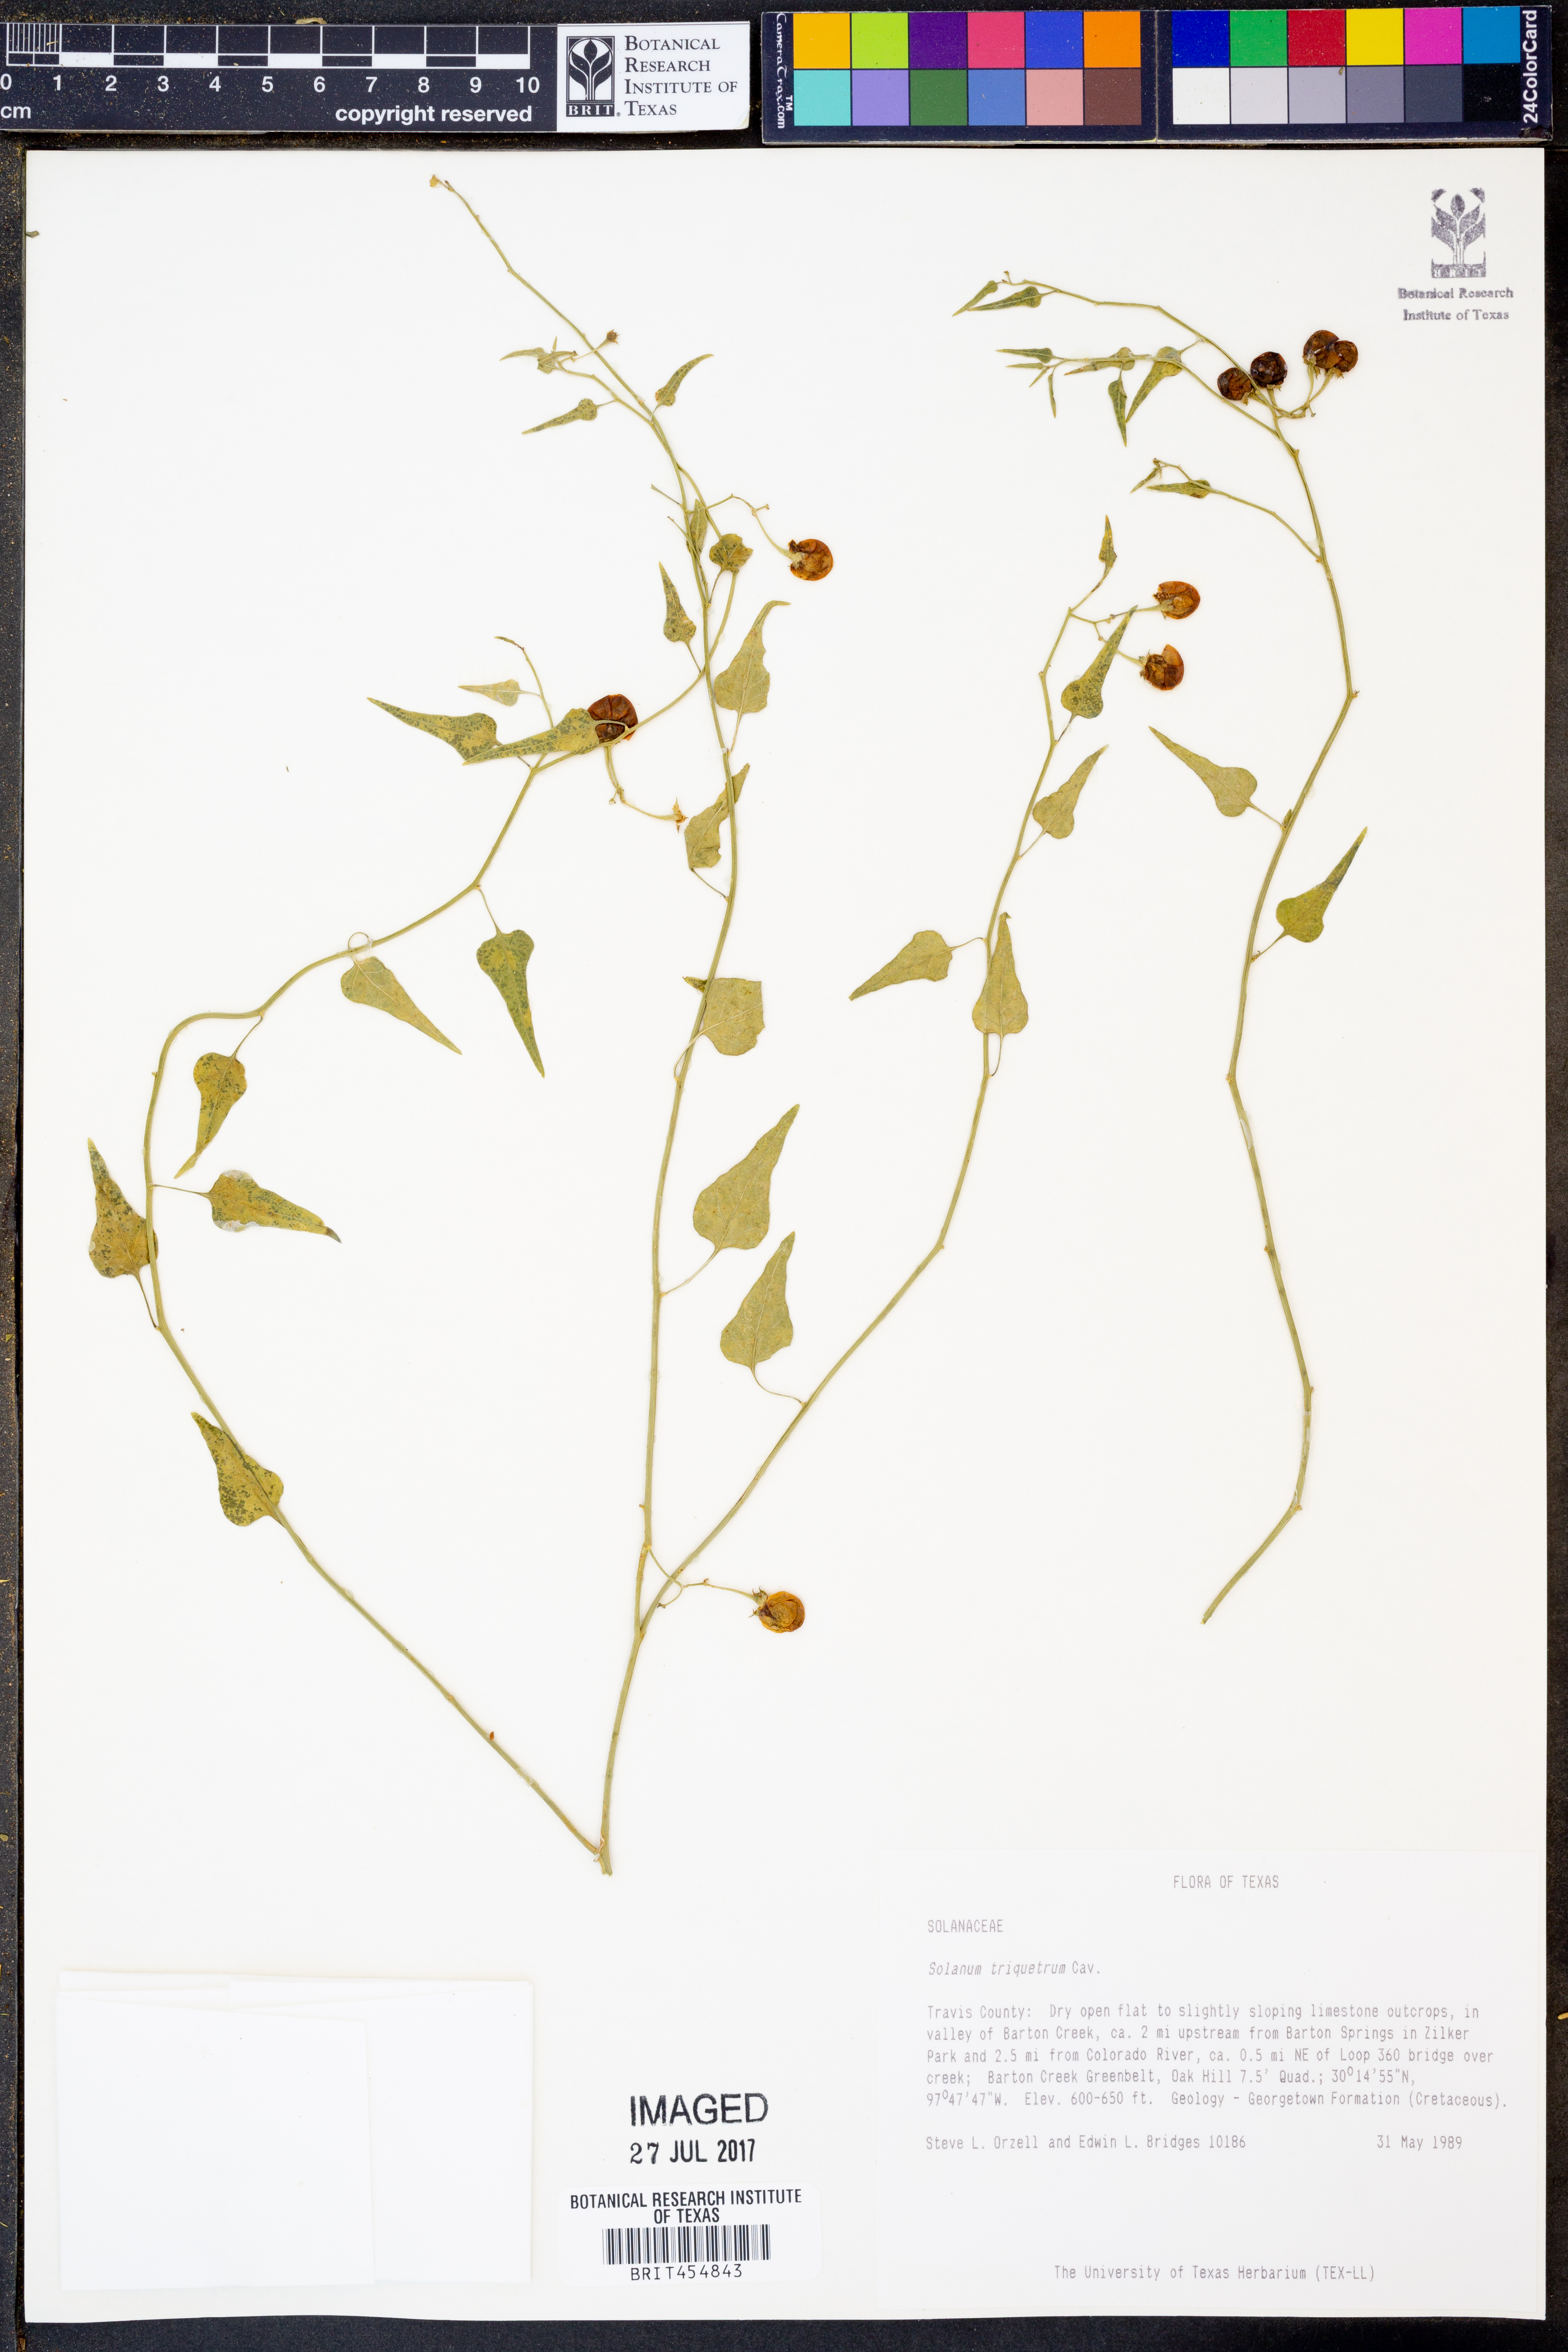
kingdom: Plantae
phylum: Tracheophyta
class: Magnoliopsida
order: Solanales
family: Solanaceae
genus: Solanum
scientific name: Solanum triquetrum
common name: Texas nightshade
